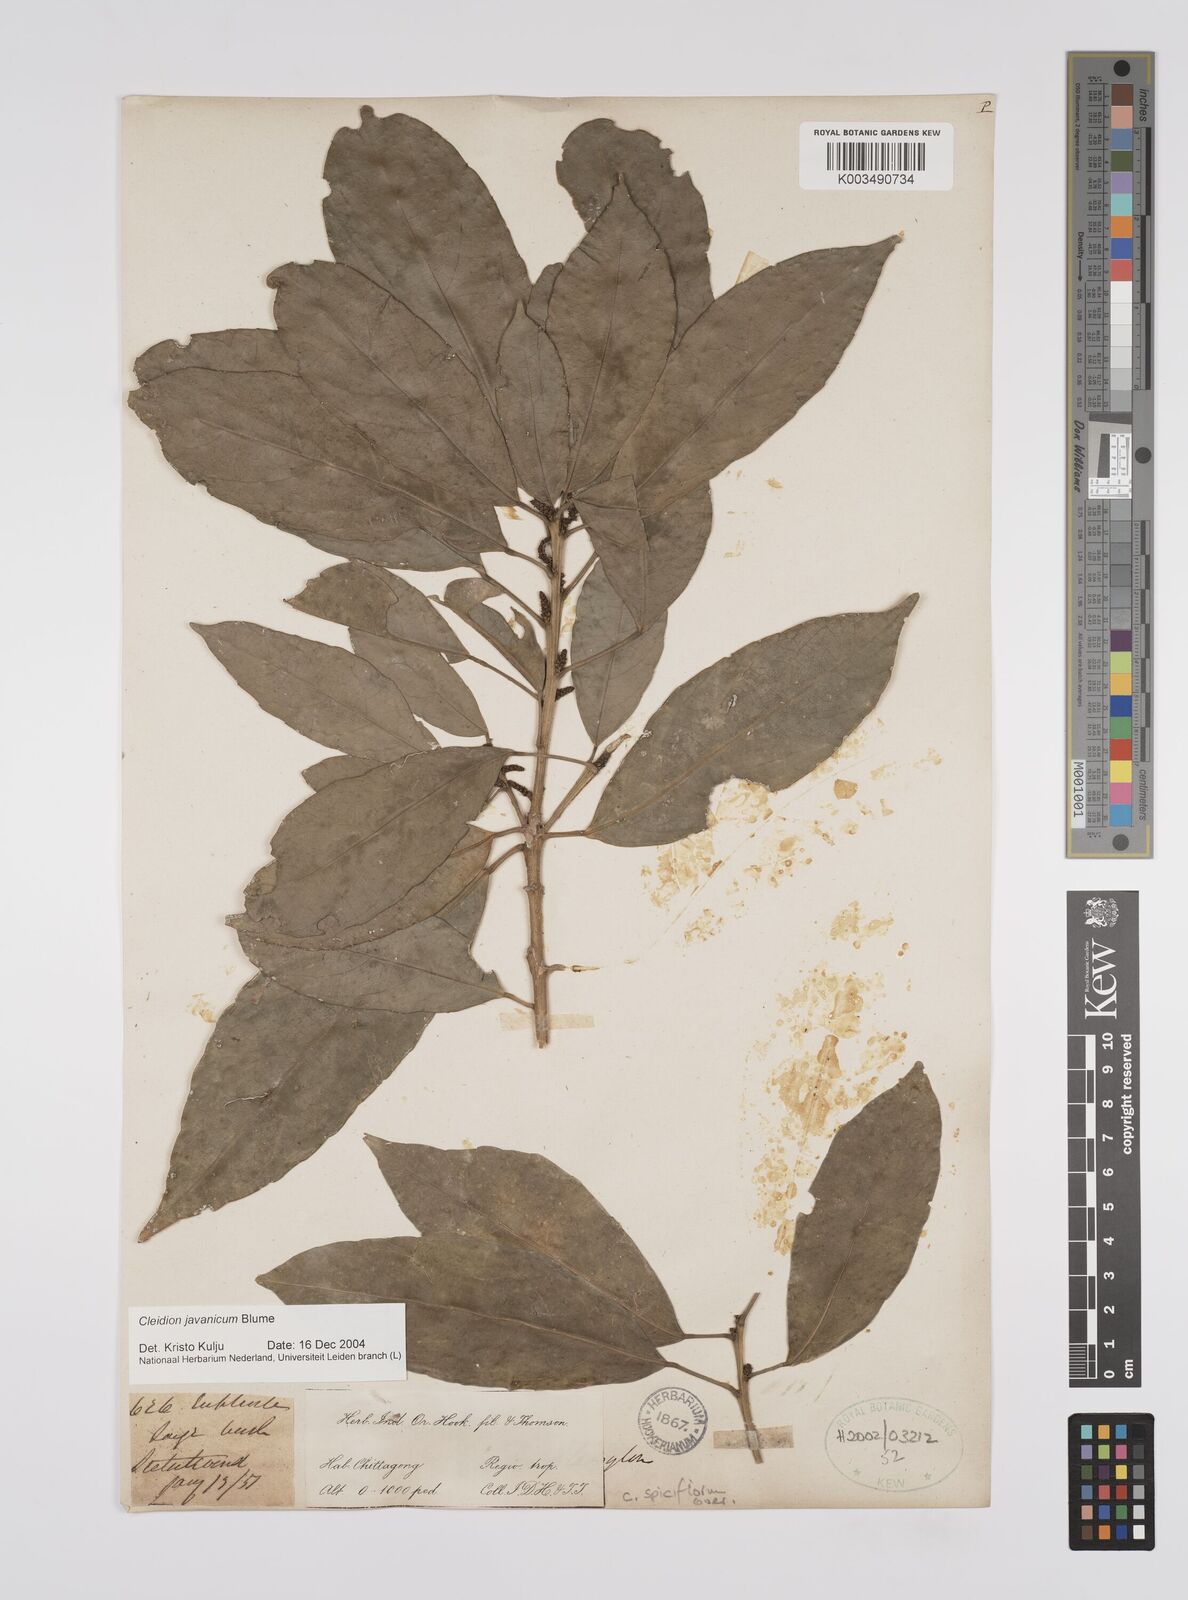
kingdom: Plantae
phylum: Tracheophyta
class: Magnoliopsida
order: Malpighiales
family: Euphorbiaceae
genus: Acalypha
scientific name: Acalypha spiciflora
